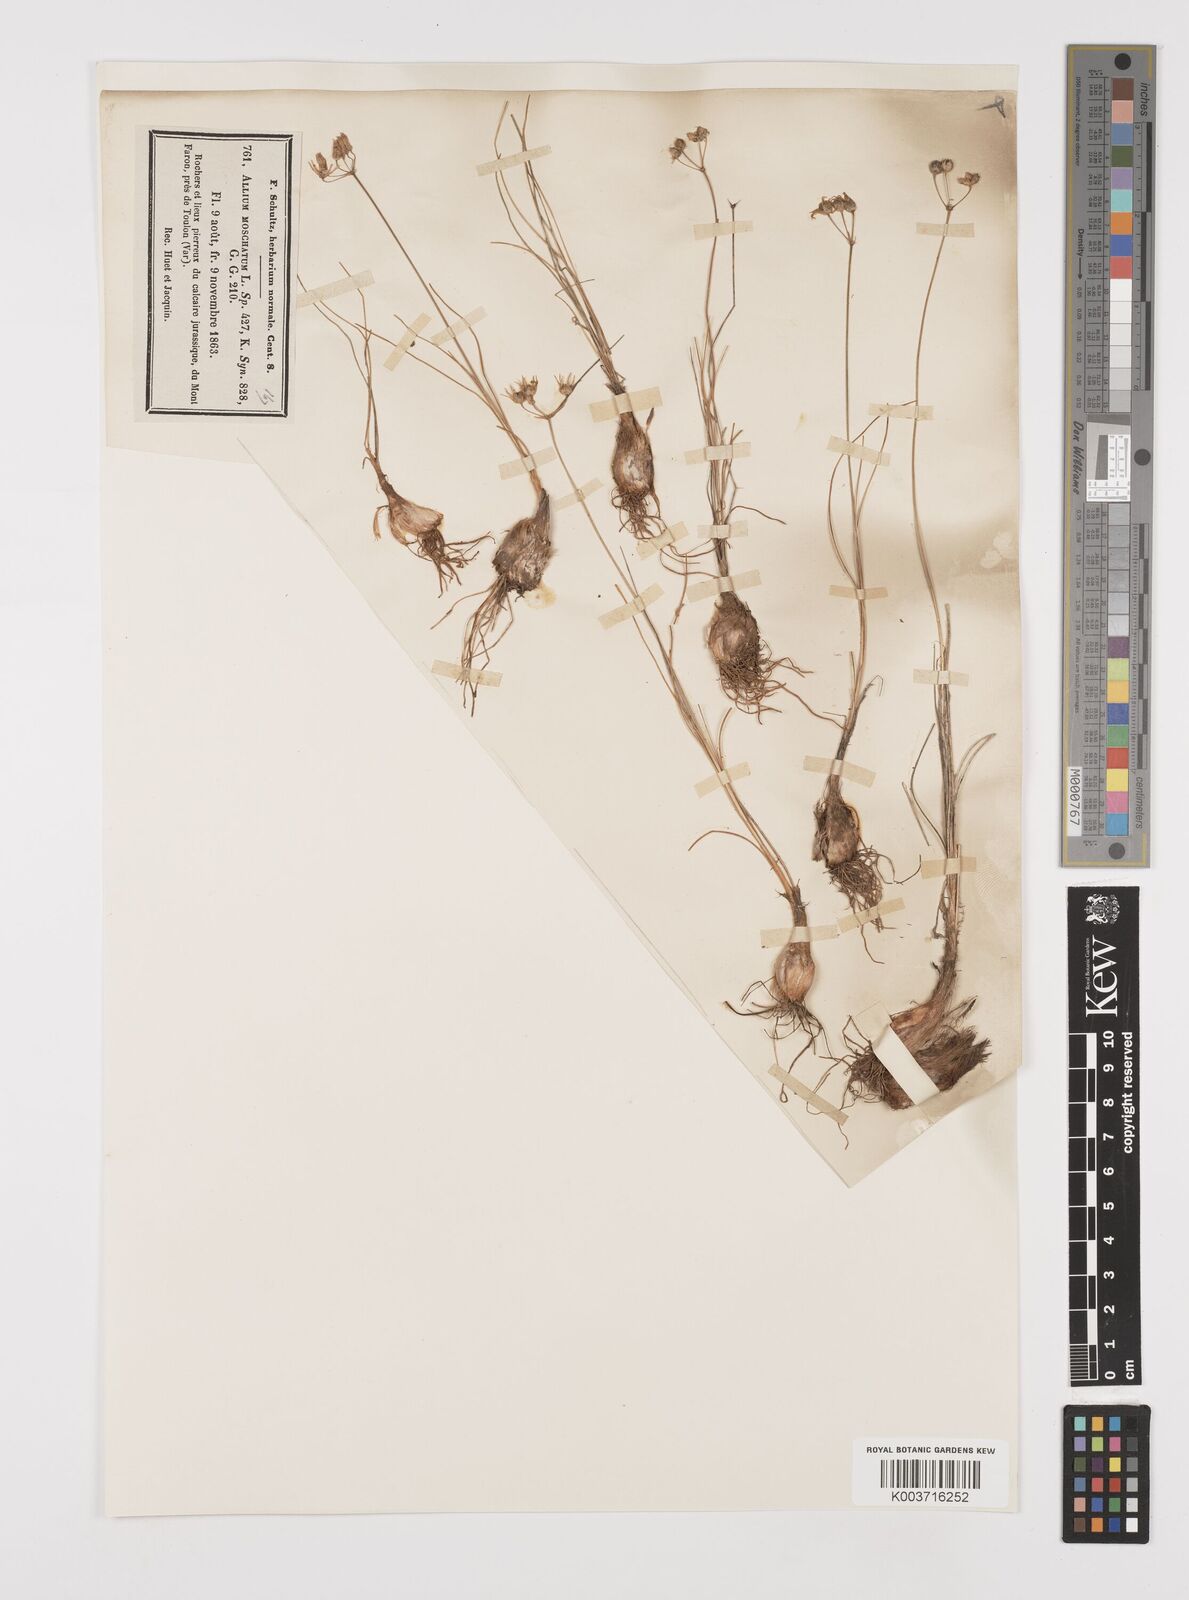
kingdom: Plantae
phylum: Tracheophyta
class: Liliopsida
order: Asparagales
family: Amaryllidaceae
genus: Allium
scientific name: Allium moschatum
